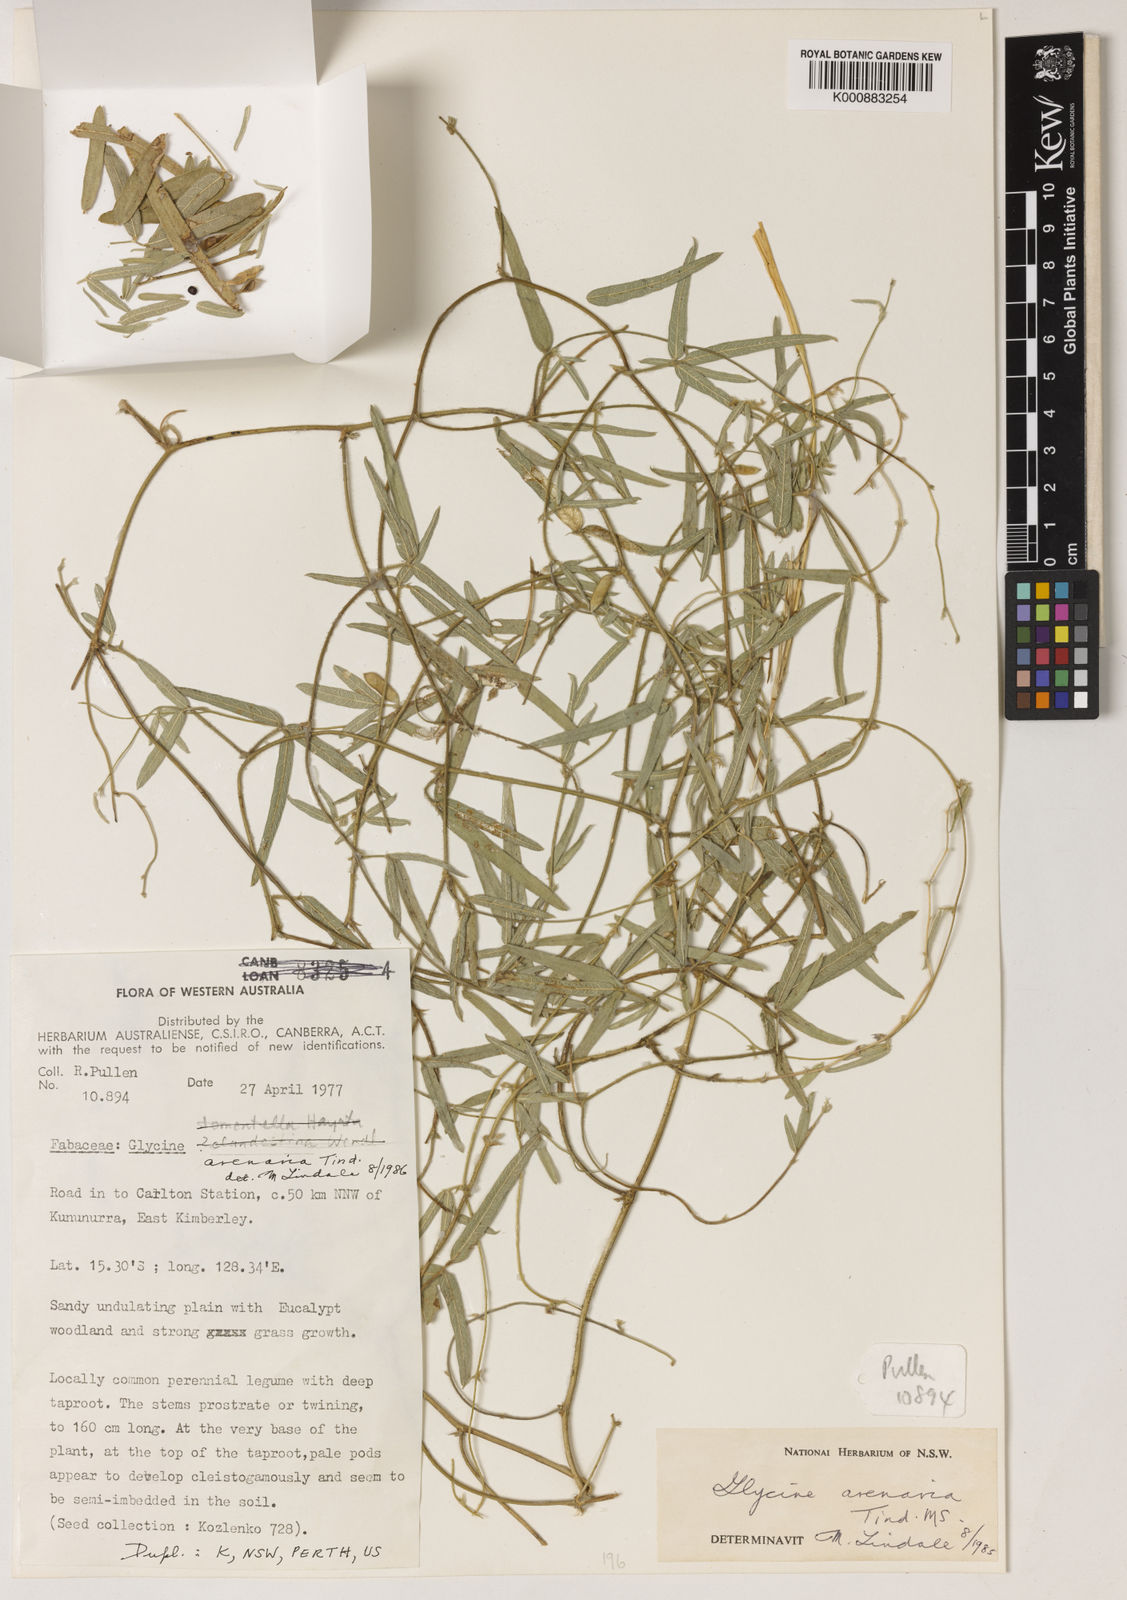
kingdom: Plantae
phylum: Tracheophyta
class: Magnoliopsida
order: Fabales
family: Fabaceae
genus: Glycine
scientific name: Glycine arenaria
